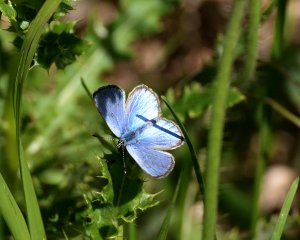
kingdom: Animalia
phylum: Arthropoda
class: Insecta
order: Lepidoptera
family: Lycaenidae
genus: Glaucopsyche
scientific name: Glaucopsyche lygdamus
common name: Silvery Blue
